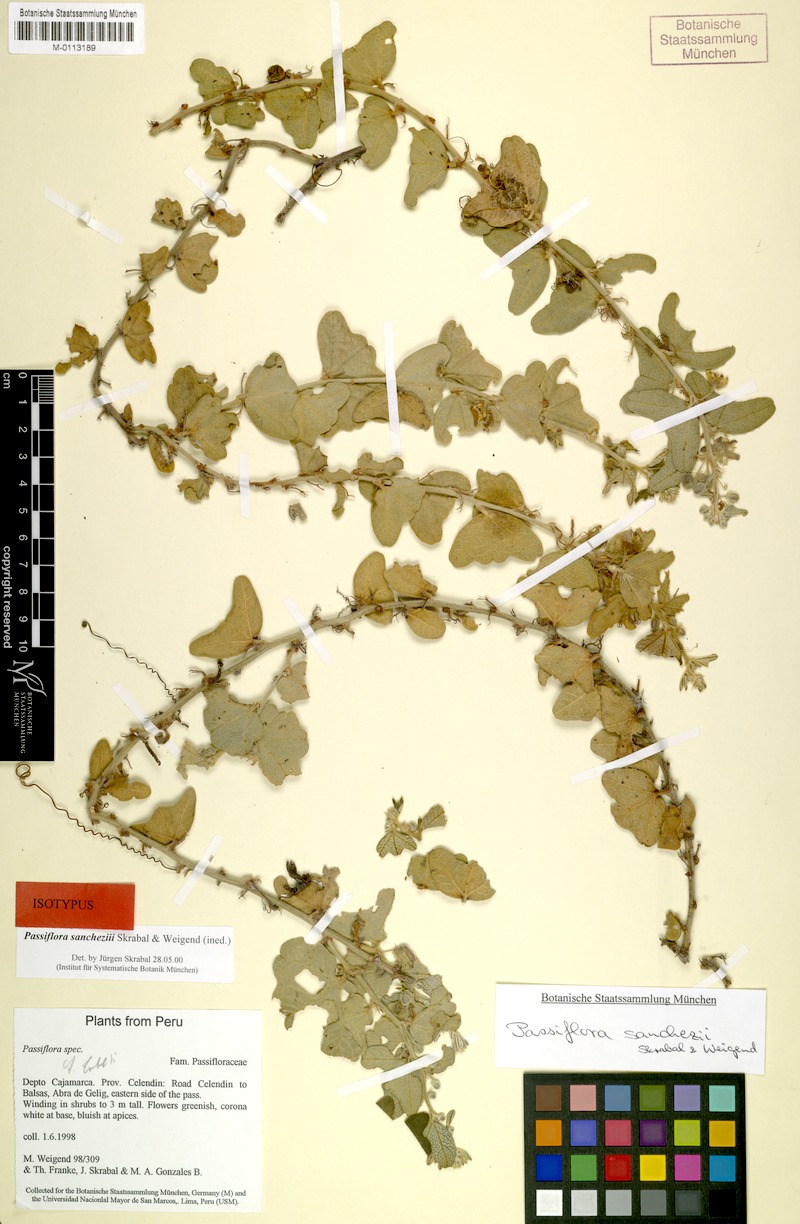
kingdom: Plantae
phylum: Tracheophyta
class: Magnoliopsida
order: Malpighiales
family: Passifloraceae
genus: Passiflora
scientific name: Passiflora sanchezii
